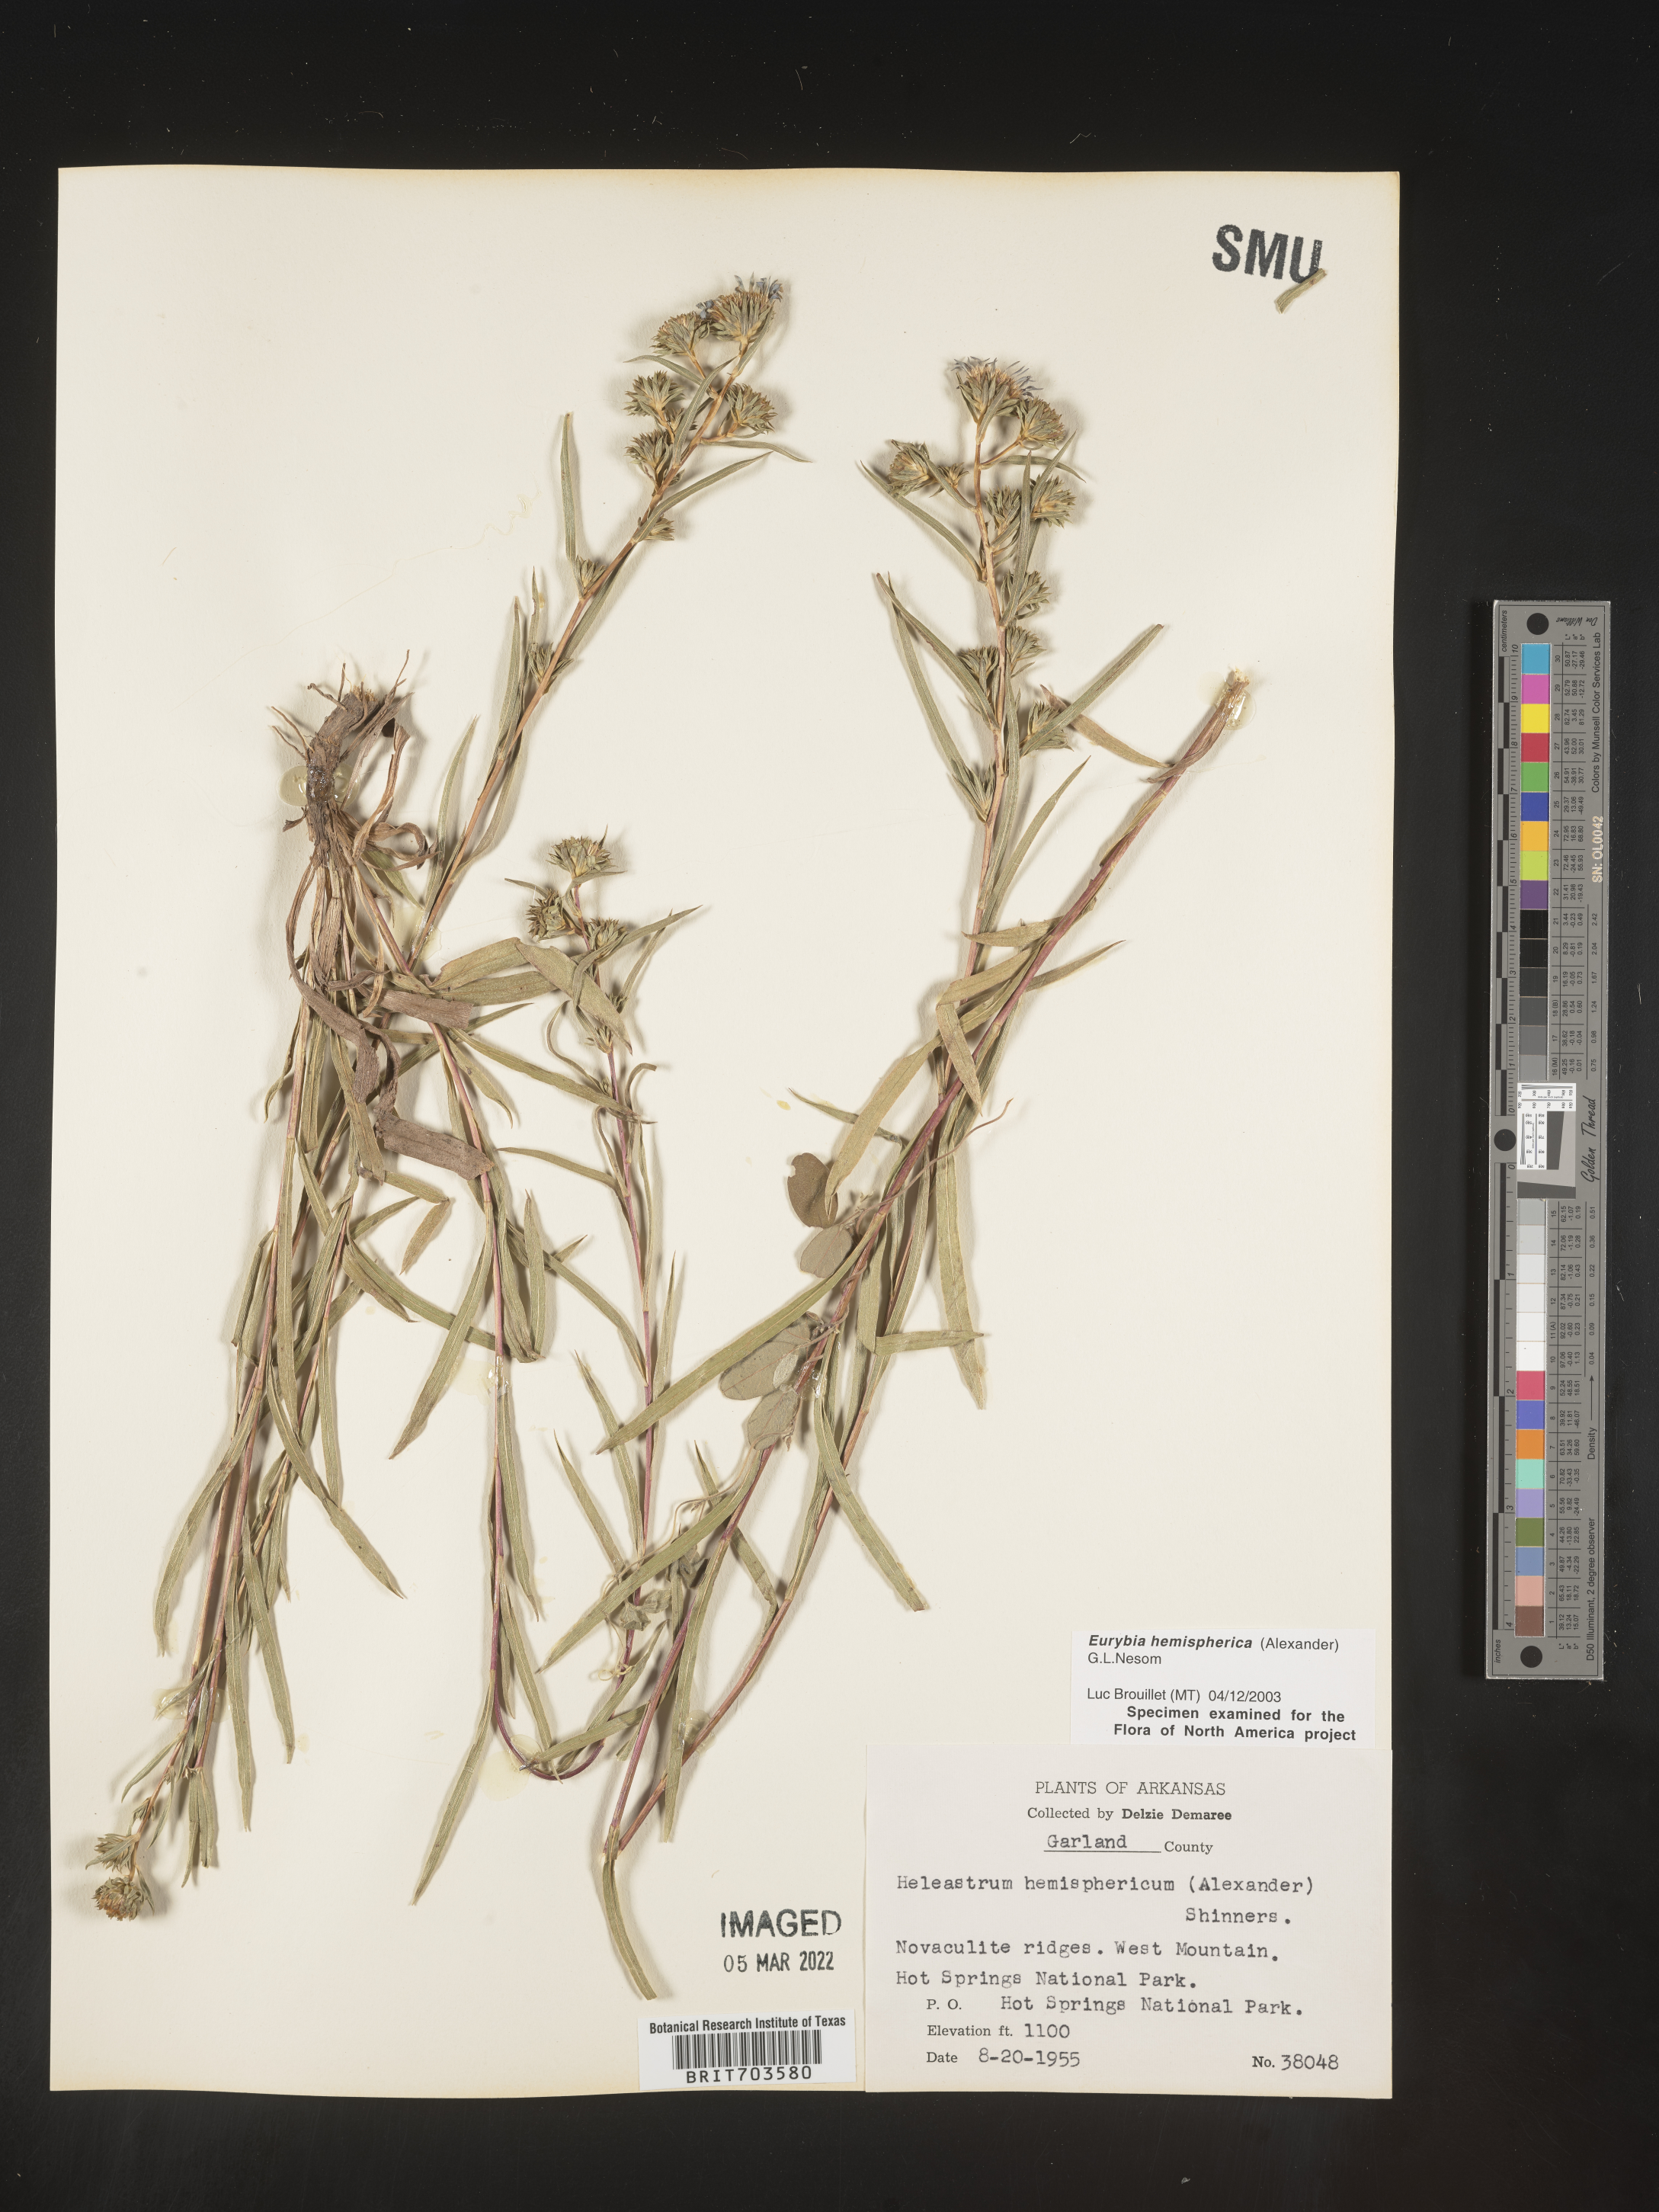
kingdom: Plantae
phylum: Tracheophyta
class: Magnoliopsida
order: Asterales
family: Asteraceae
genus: Eurybia
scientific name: Eurybia hemispherica
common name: Showy aster
